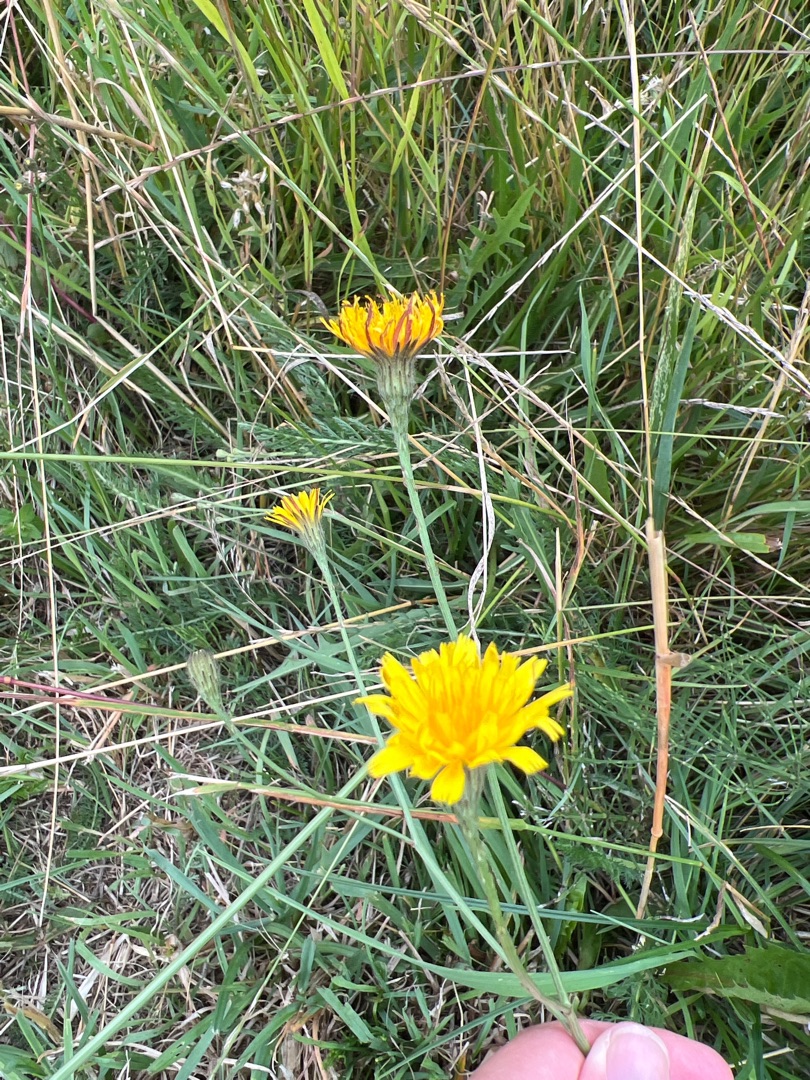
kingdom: Plantae
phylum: Tracheophyta
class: Magnoliopsida
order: Asterales
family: Asteraceae
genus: Scorzoneroides
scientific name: Scorzoneroides autumnalis
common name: Høst-borst
